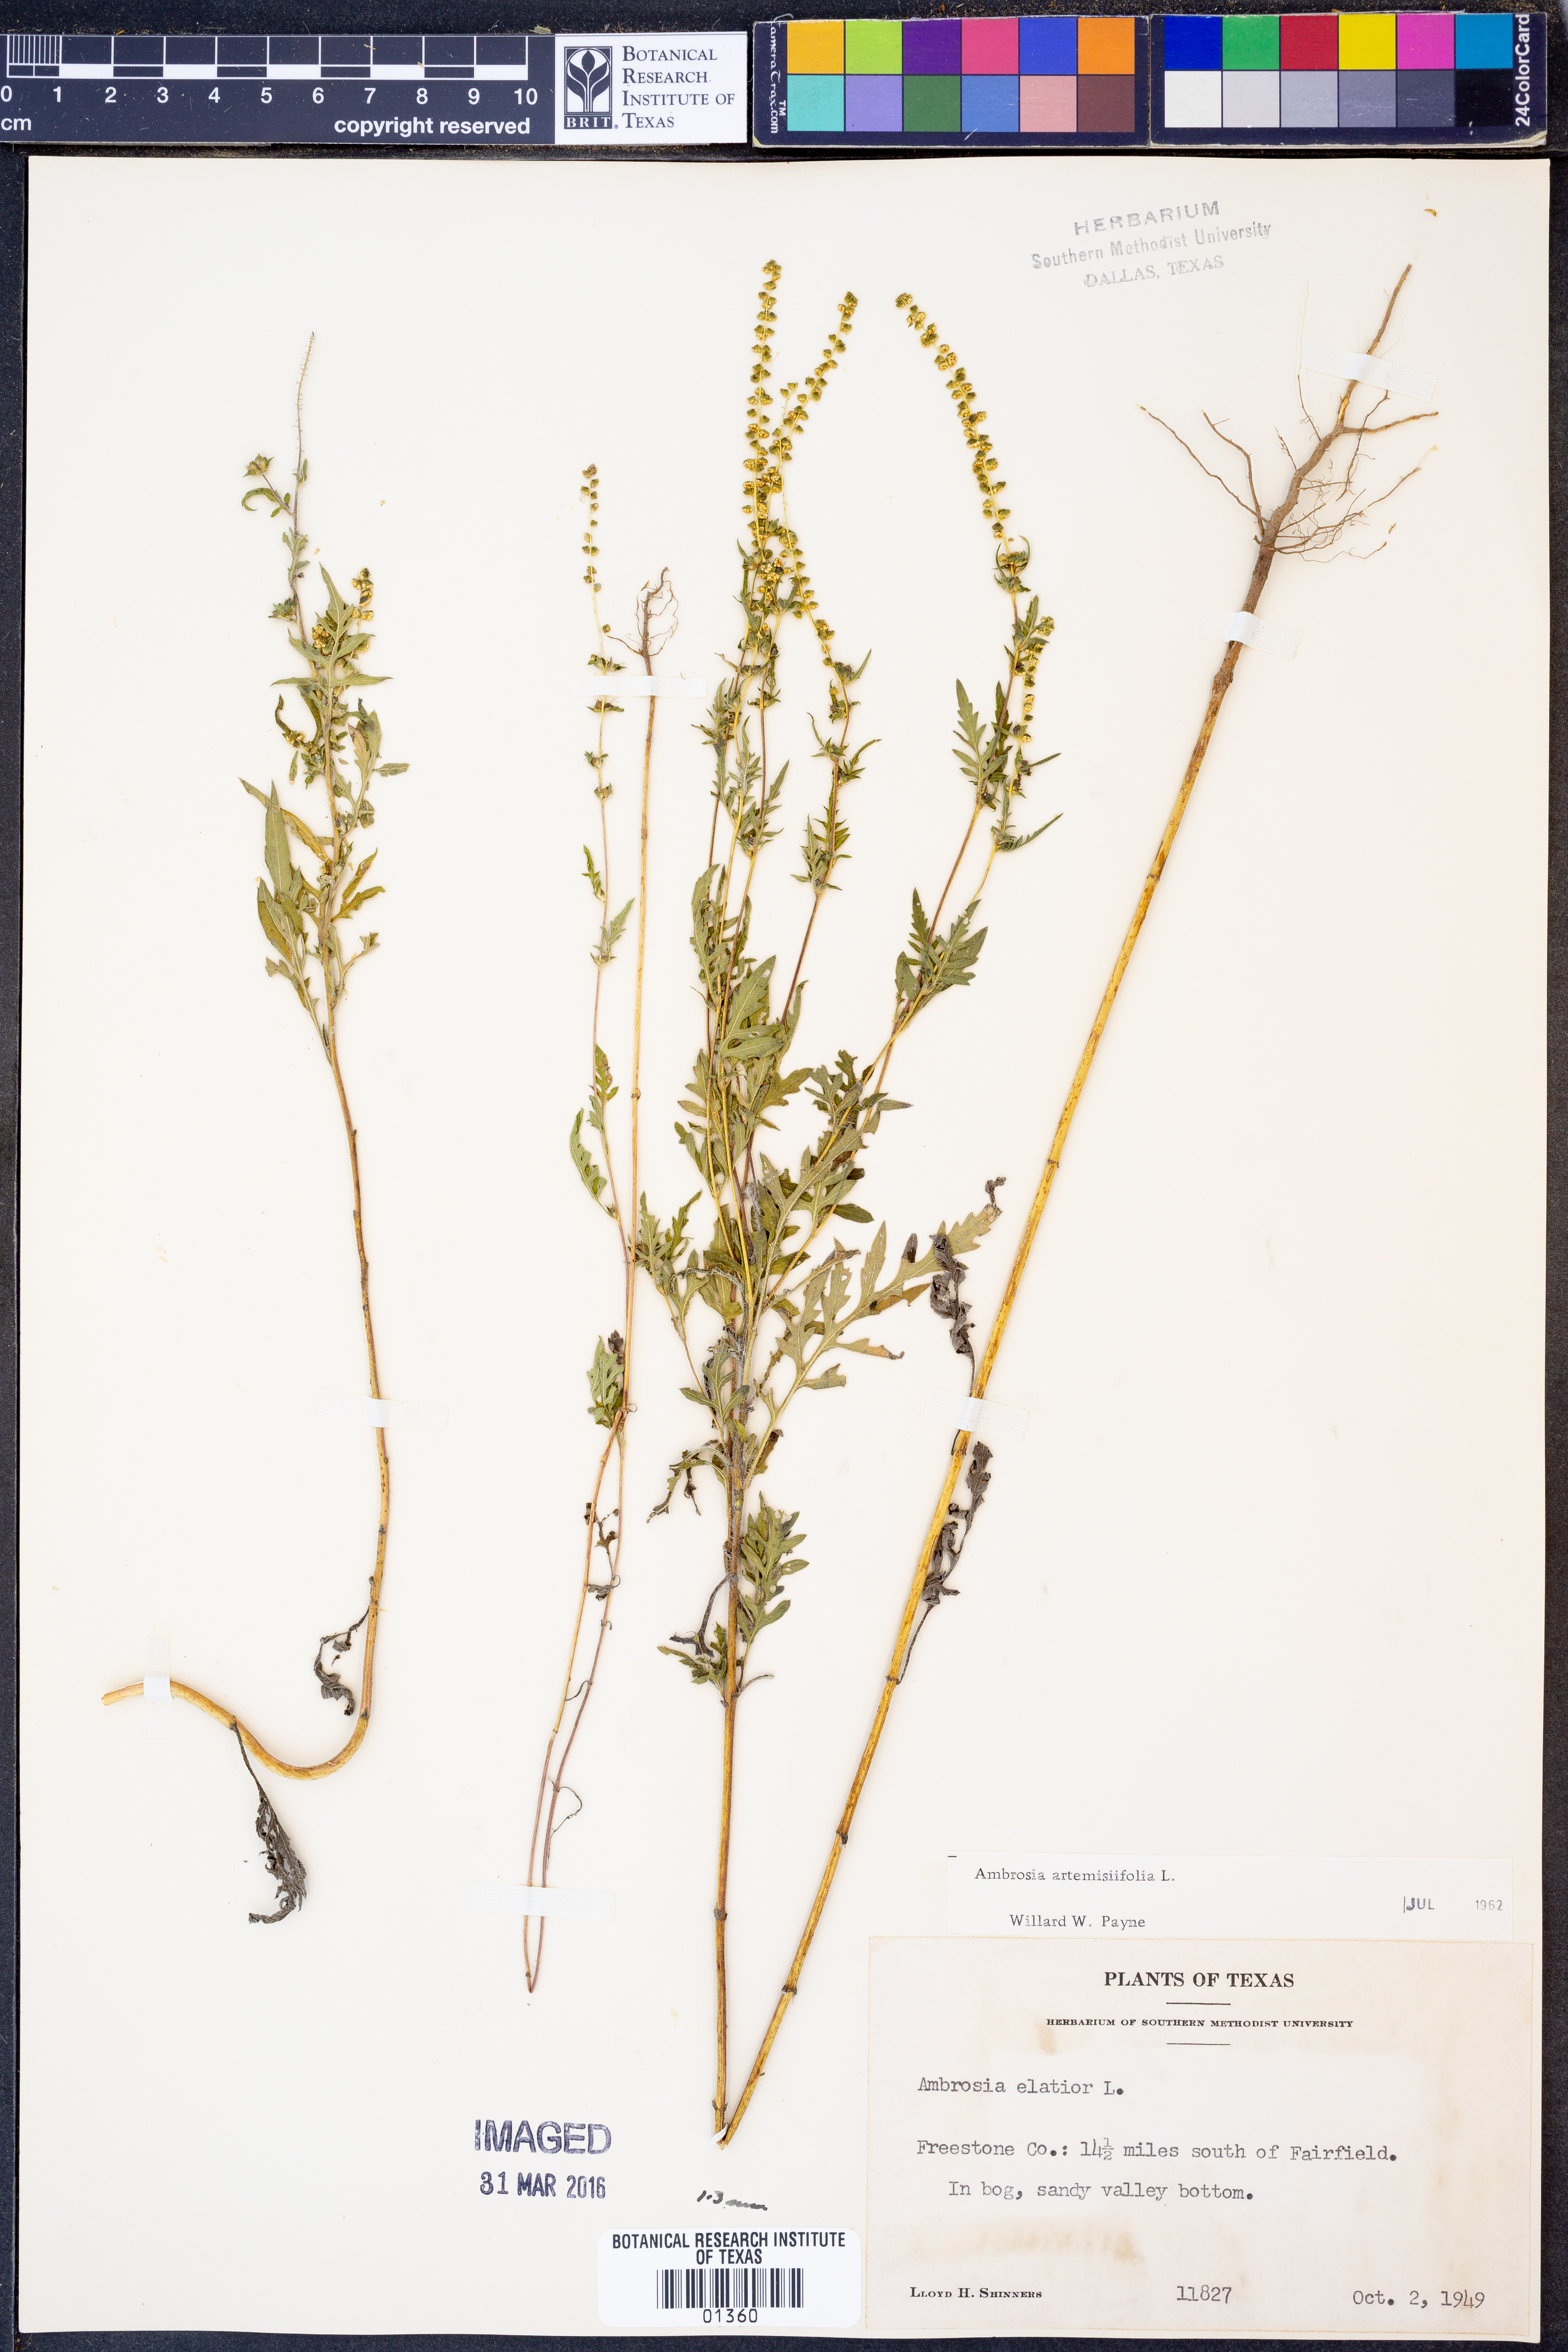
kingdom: Plantae
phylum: Tracheophyta
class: Magnoliopsida
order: Asterales
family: Asteraceae
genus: Ambrosia
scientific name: Ambrosia artemisiifolia
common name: Annual ragweed
